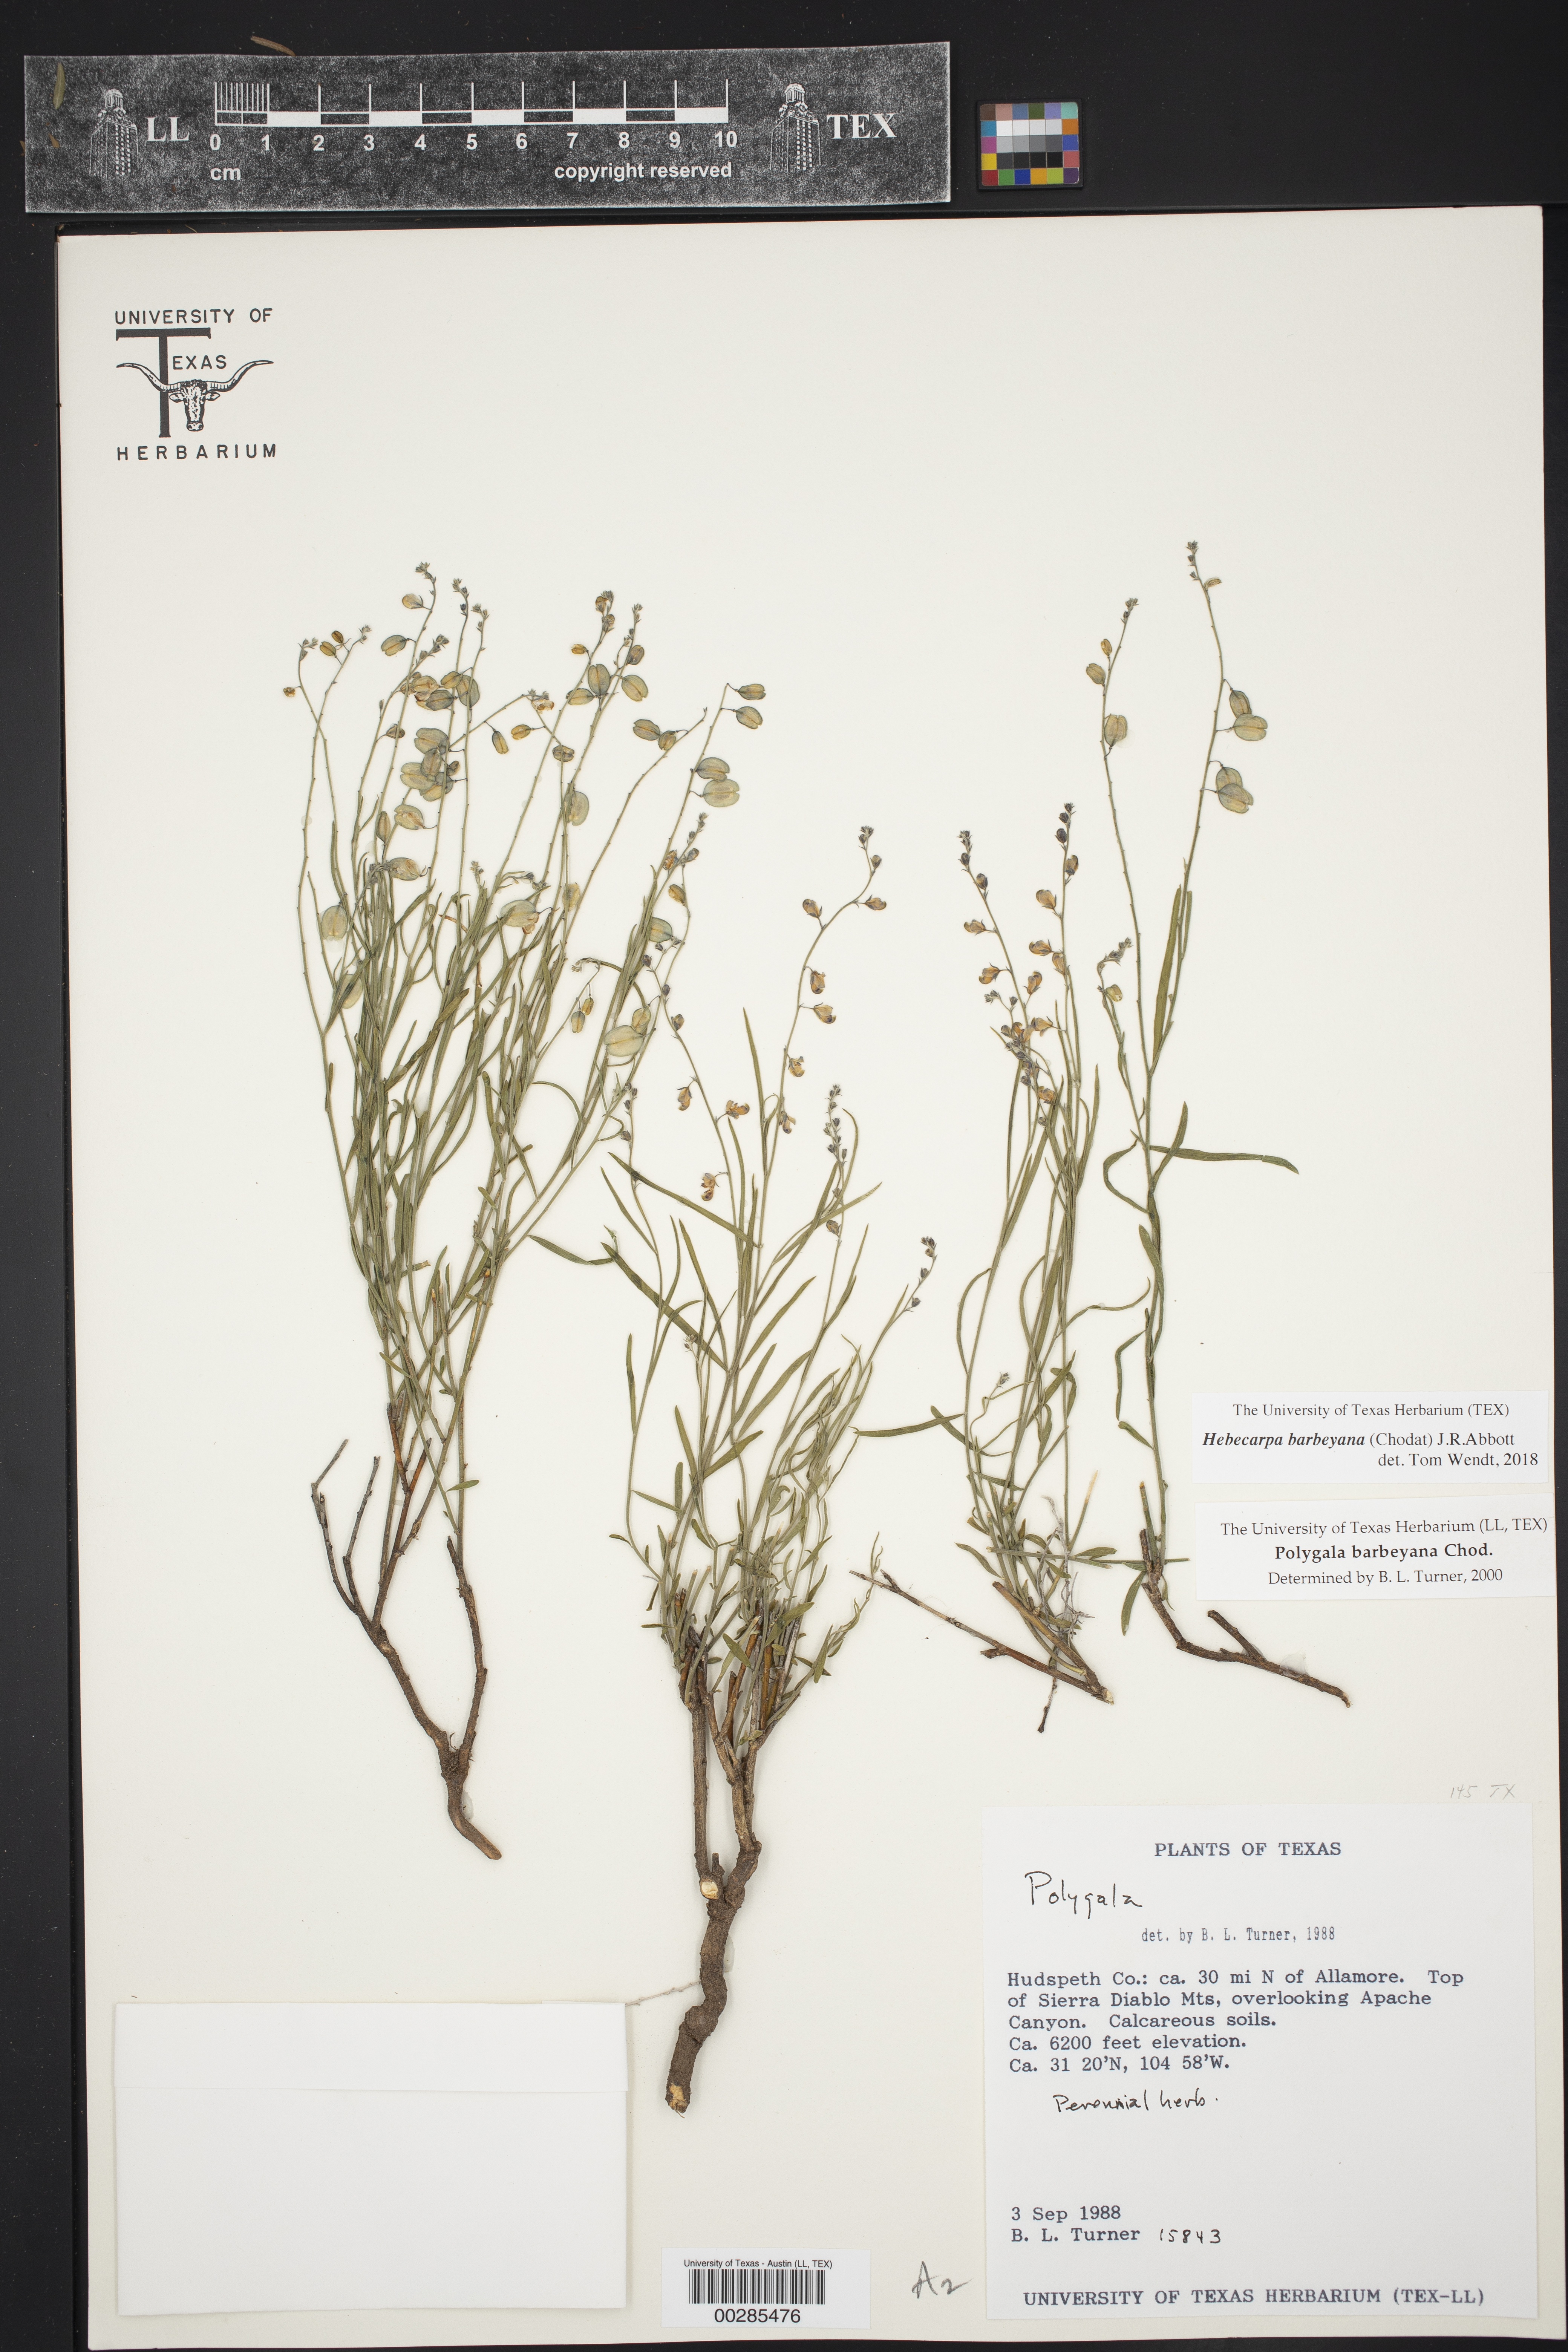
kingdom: Plantae
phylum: Tracheophyta
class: Magnoliopsida
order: Fabales
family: Polygalaceae
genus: Hebecarpa
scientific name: Hebecarpa barbeyana
